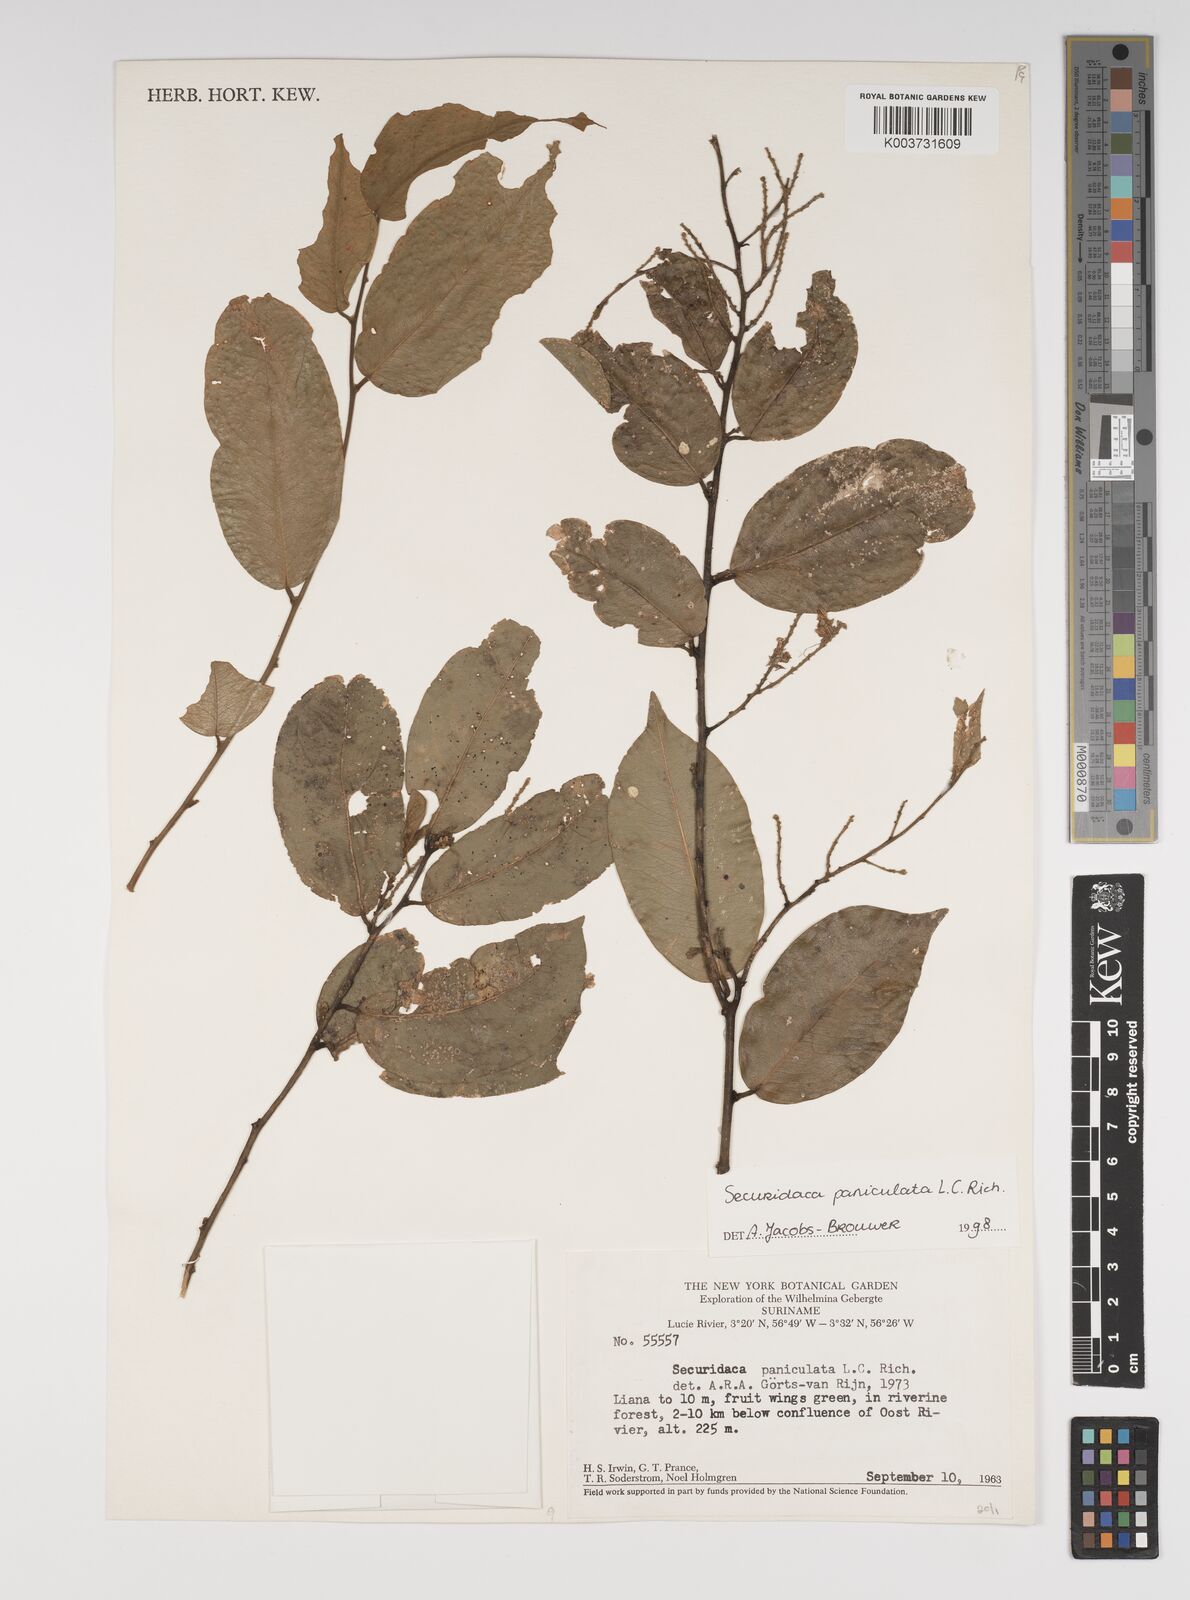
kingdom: Plantae
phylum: Tracheophyta
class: Magnoliopsida
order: Fabales
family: Polygalaceae
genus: Securidaca
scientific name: Securidaca paniculata
